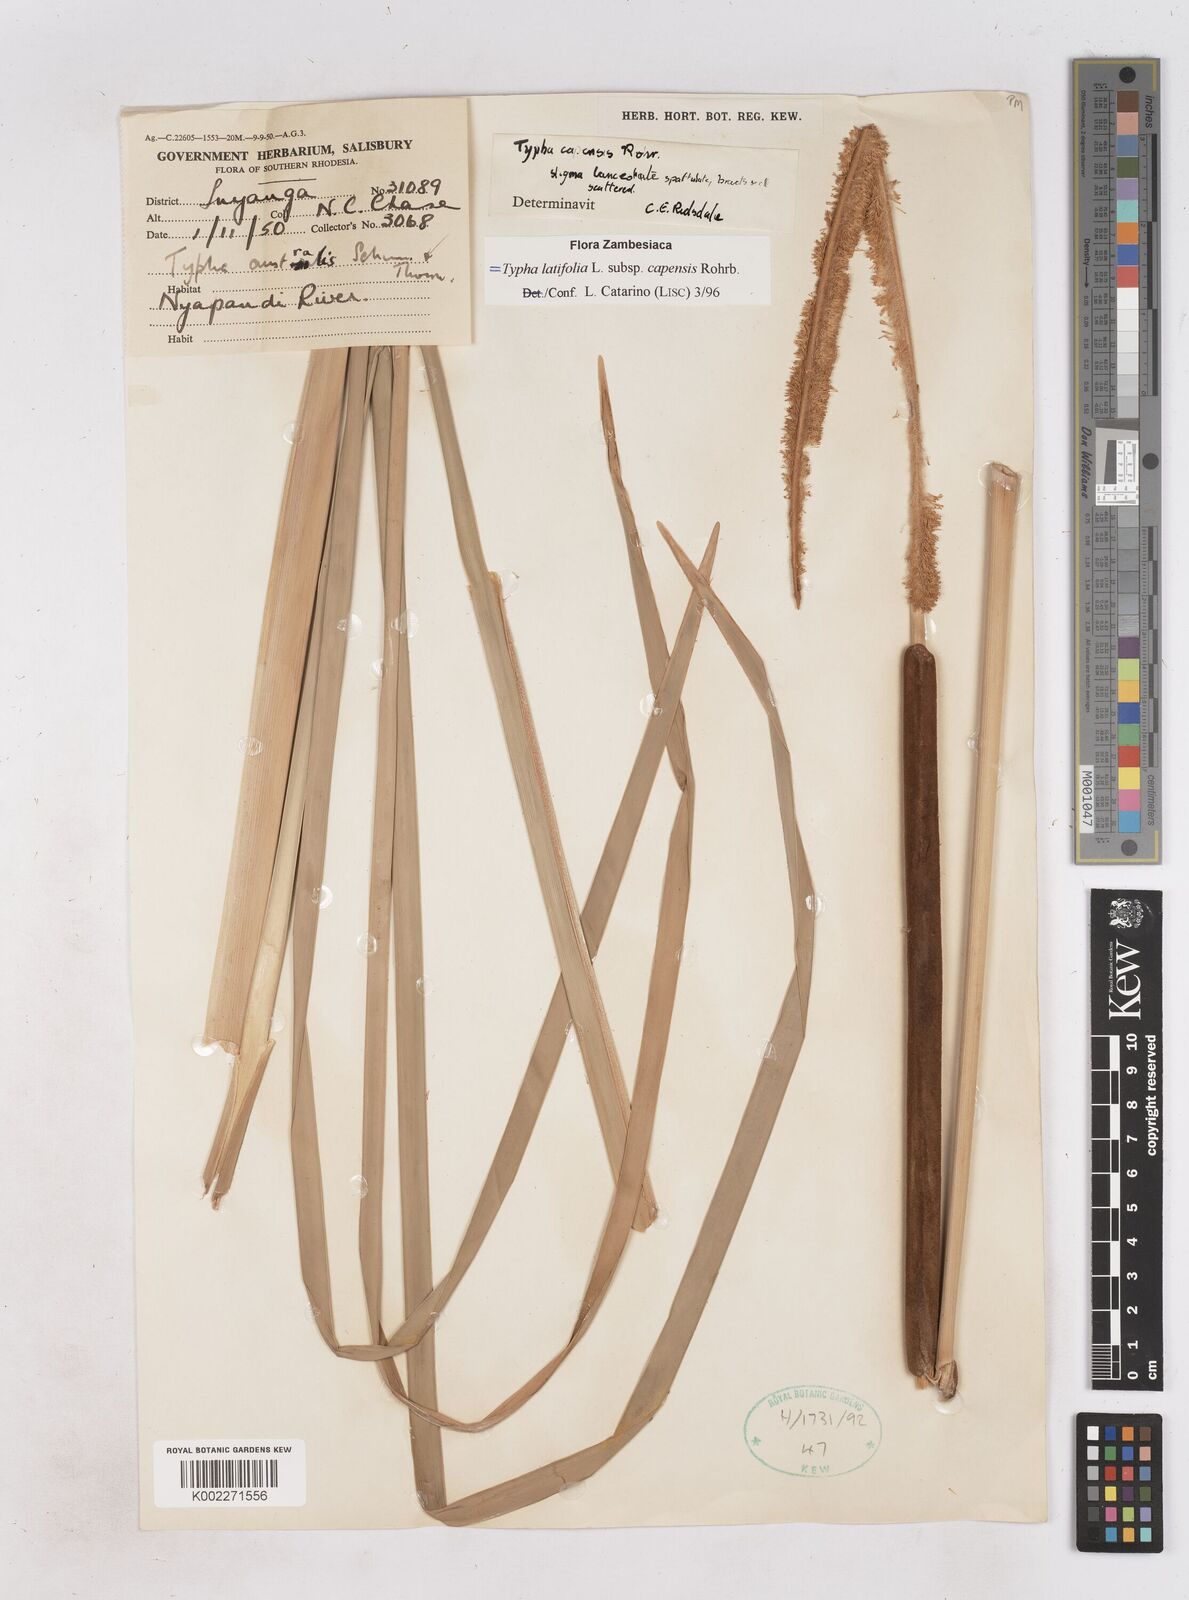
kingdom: Plantae
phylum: Tracheophyta
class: Liliopsida
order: Poales
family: Typhaceae
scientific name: Typhaceae
